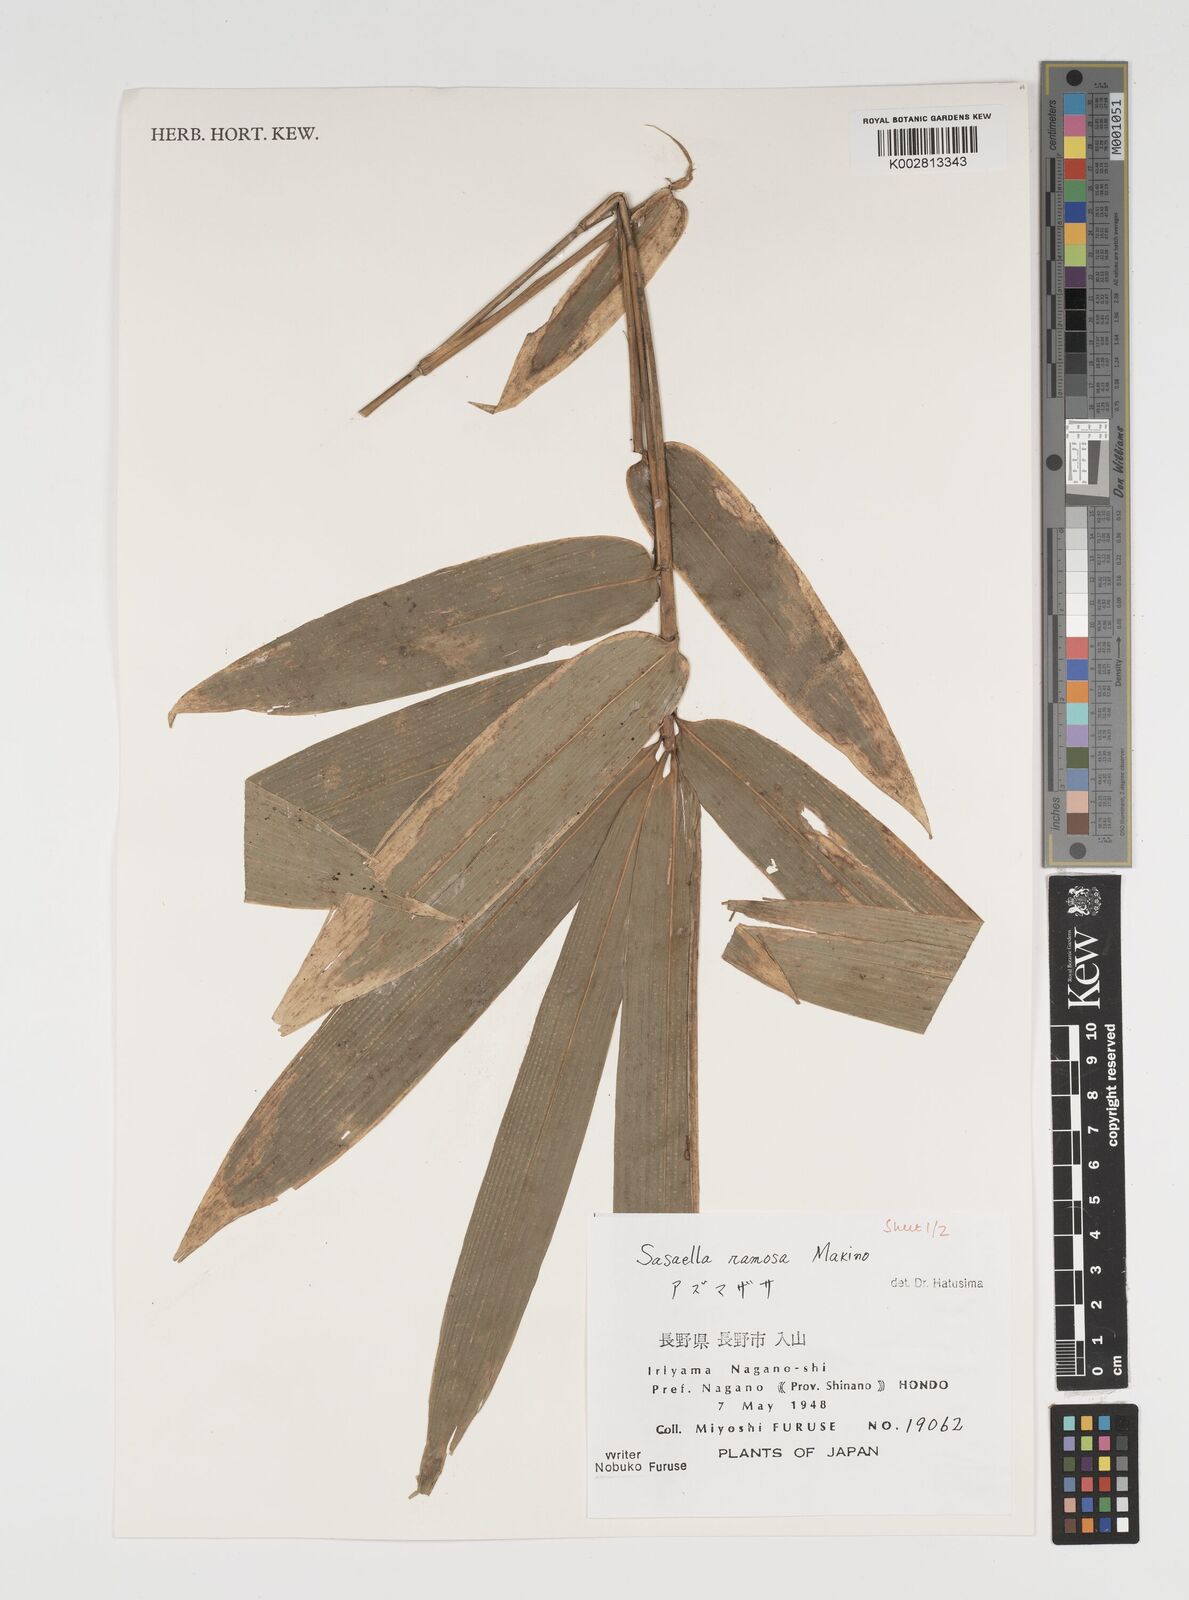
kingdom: Plantae
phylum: Tracheophyta
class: Liliopsida
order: Poales
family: Poaceae
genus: Sasaella
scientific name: Sasaella ramosa
